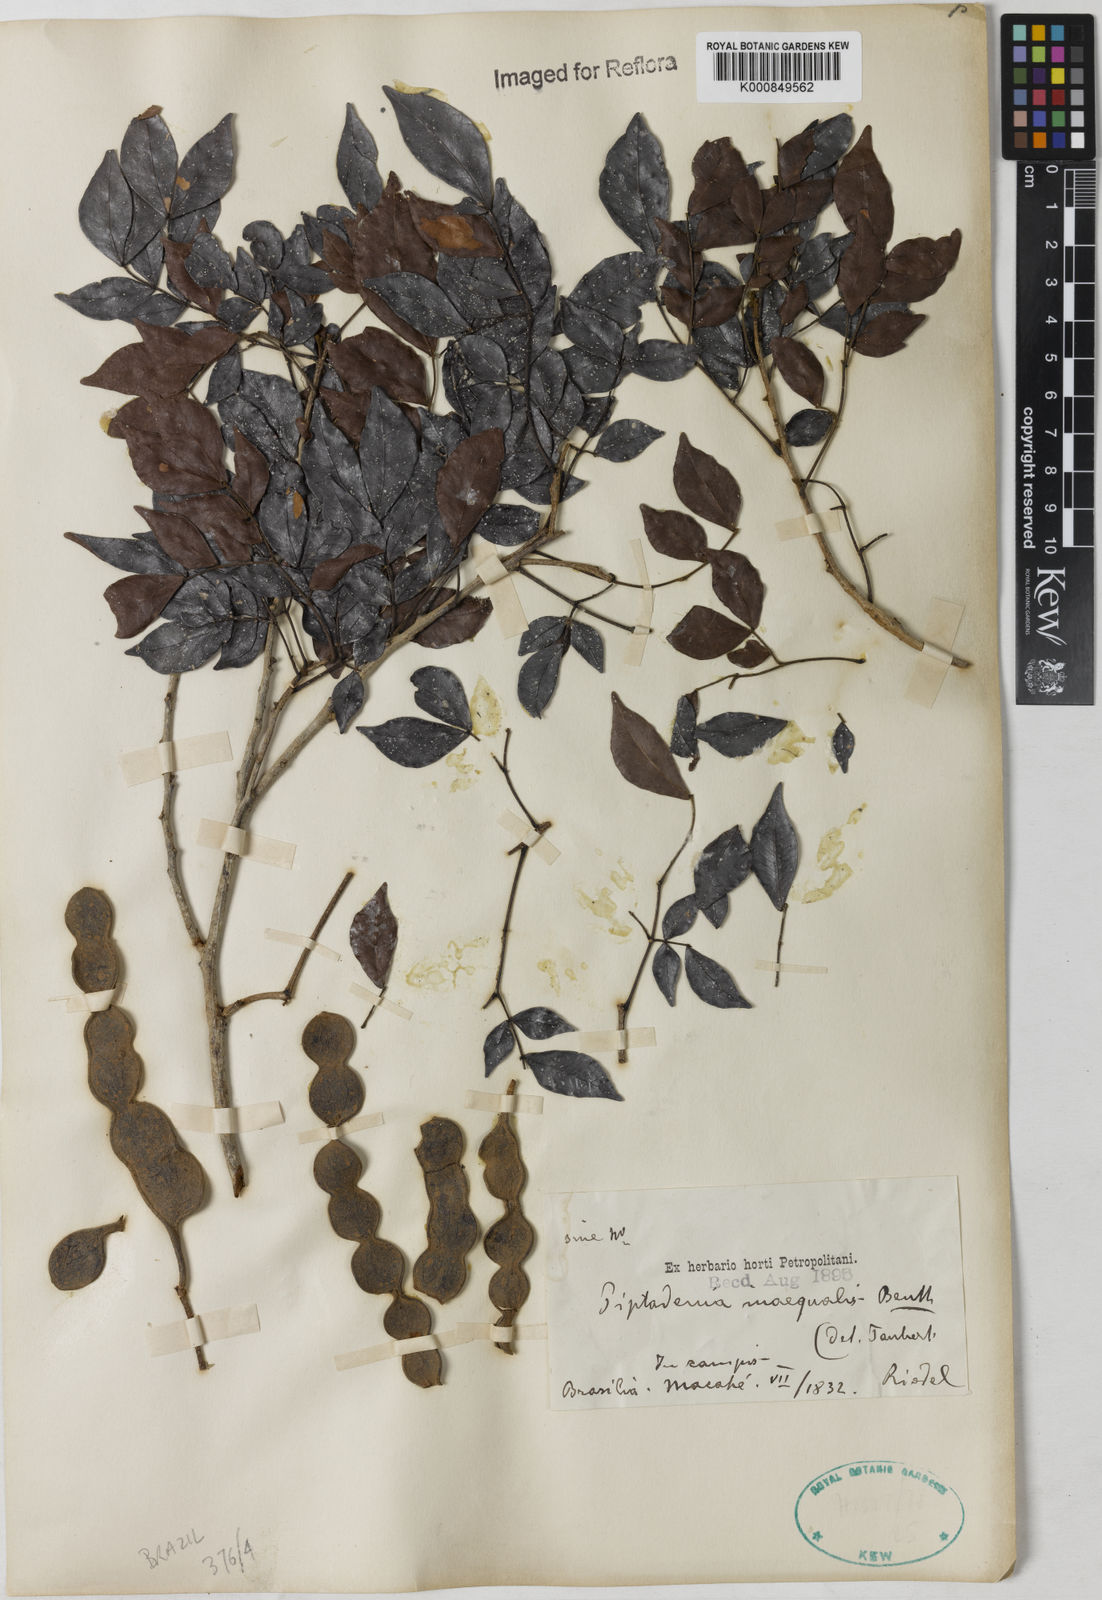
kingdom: Plantae
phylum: Tracheophyta
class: Magnoliopsida
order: Fabales
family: Fabaceae
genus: Pseudopiptadenia
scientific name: Pseudopiptadenia inaequalis
